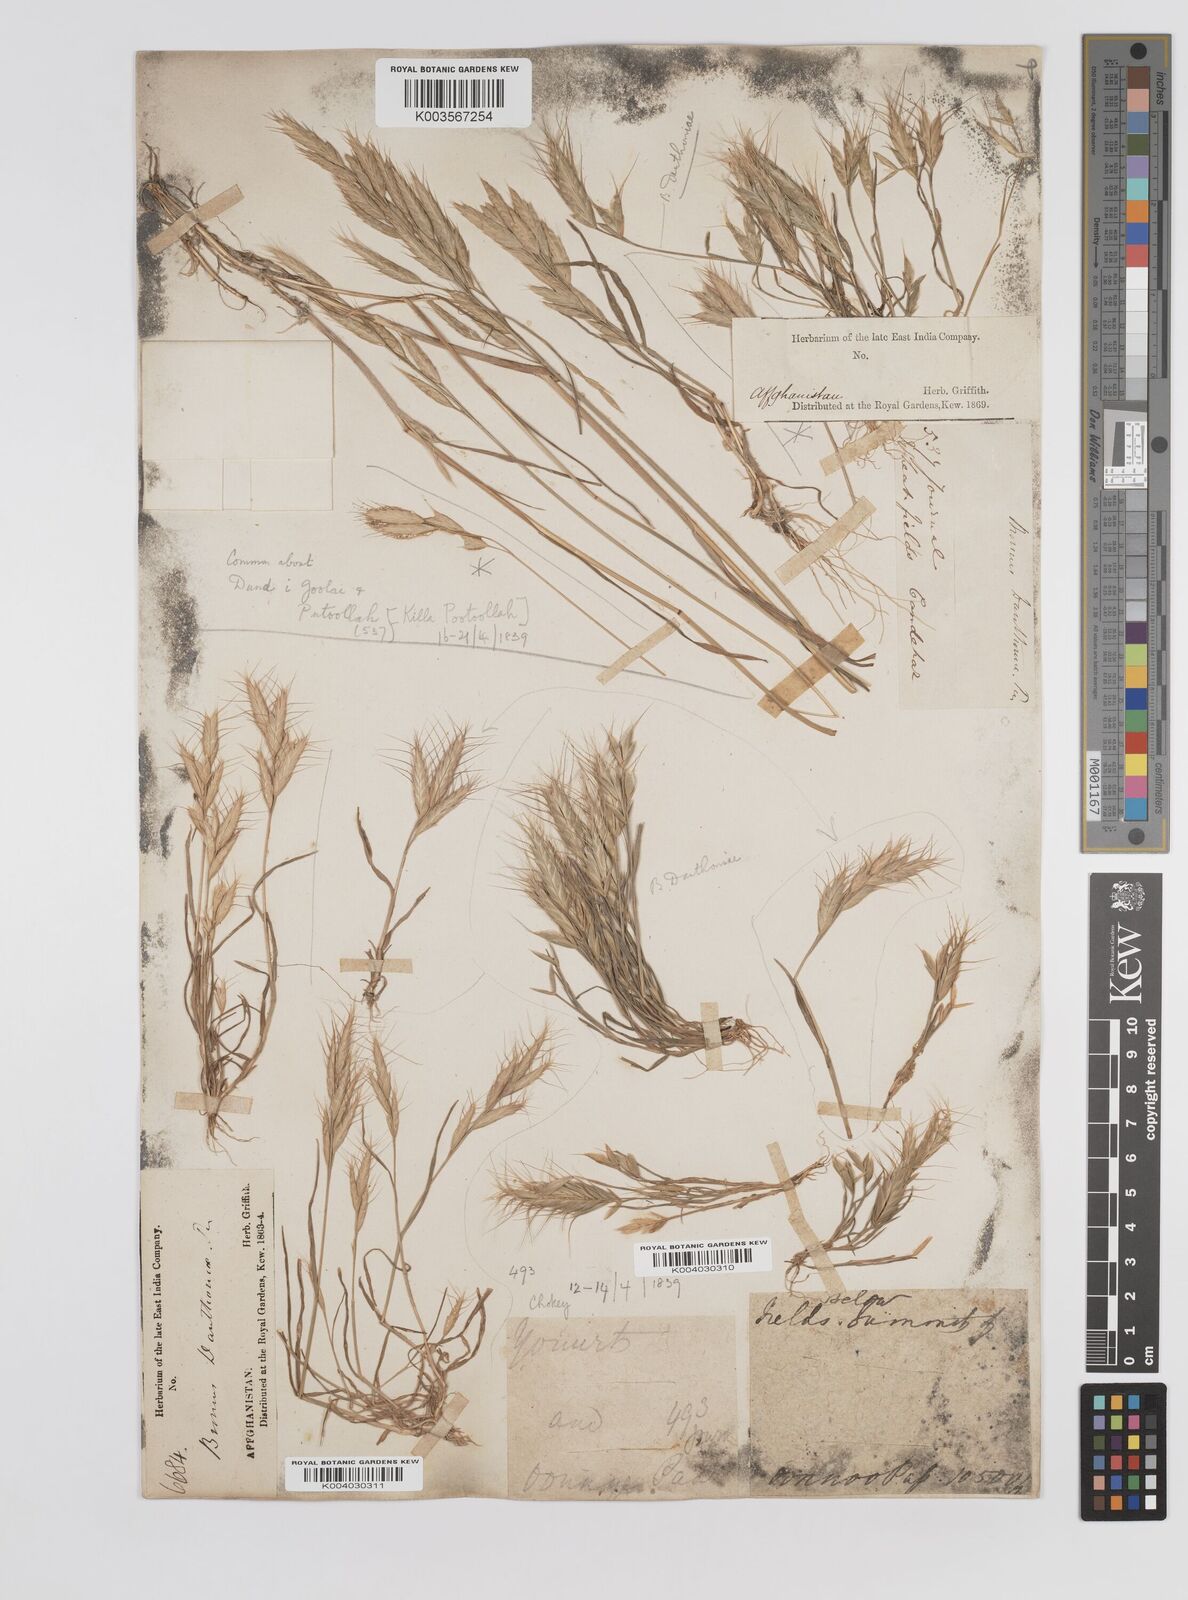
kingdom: Plantae
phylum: Tracheophyta
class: Liliopsida
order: Poales
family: Poaceae
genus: Bromus
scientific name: Bromus danthoniae
